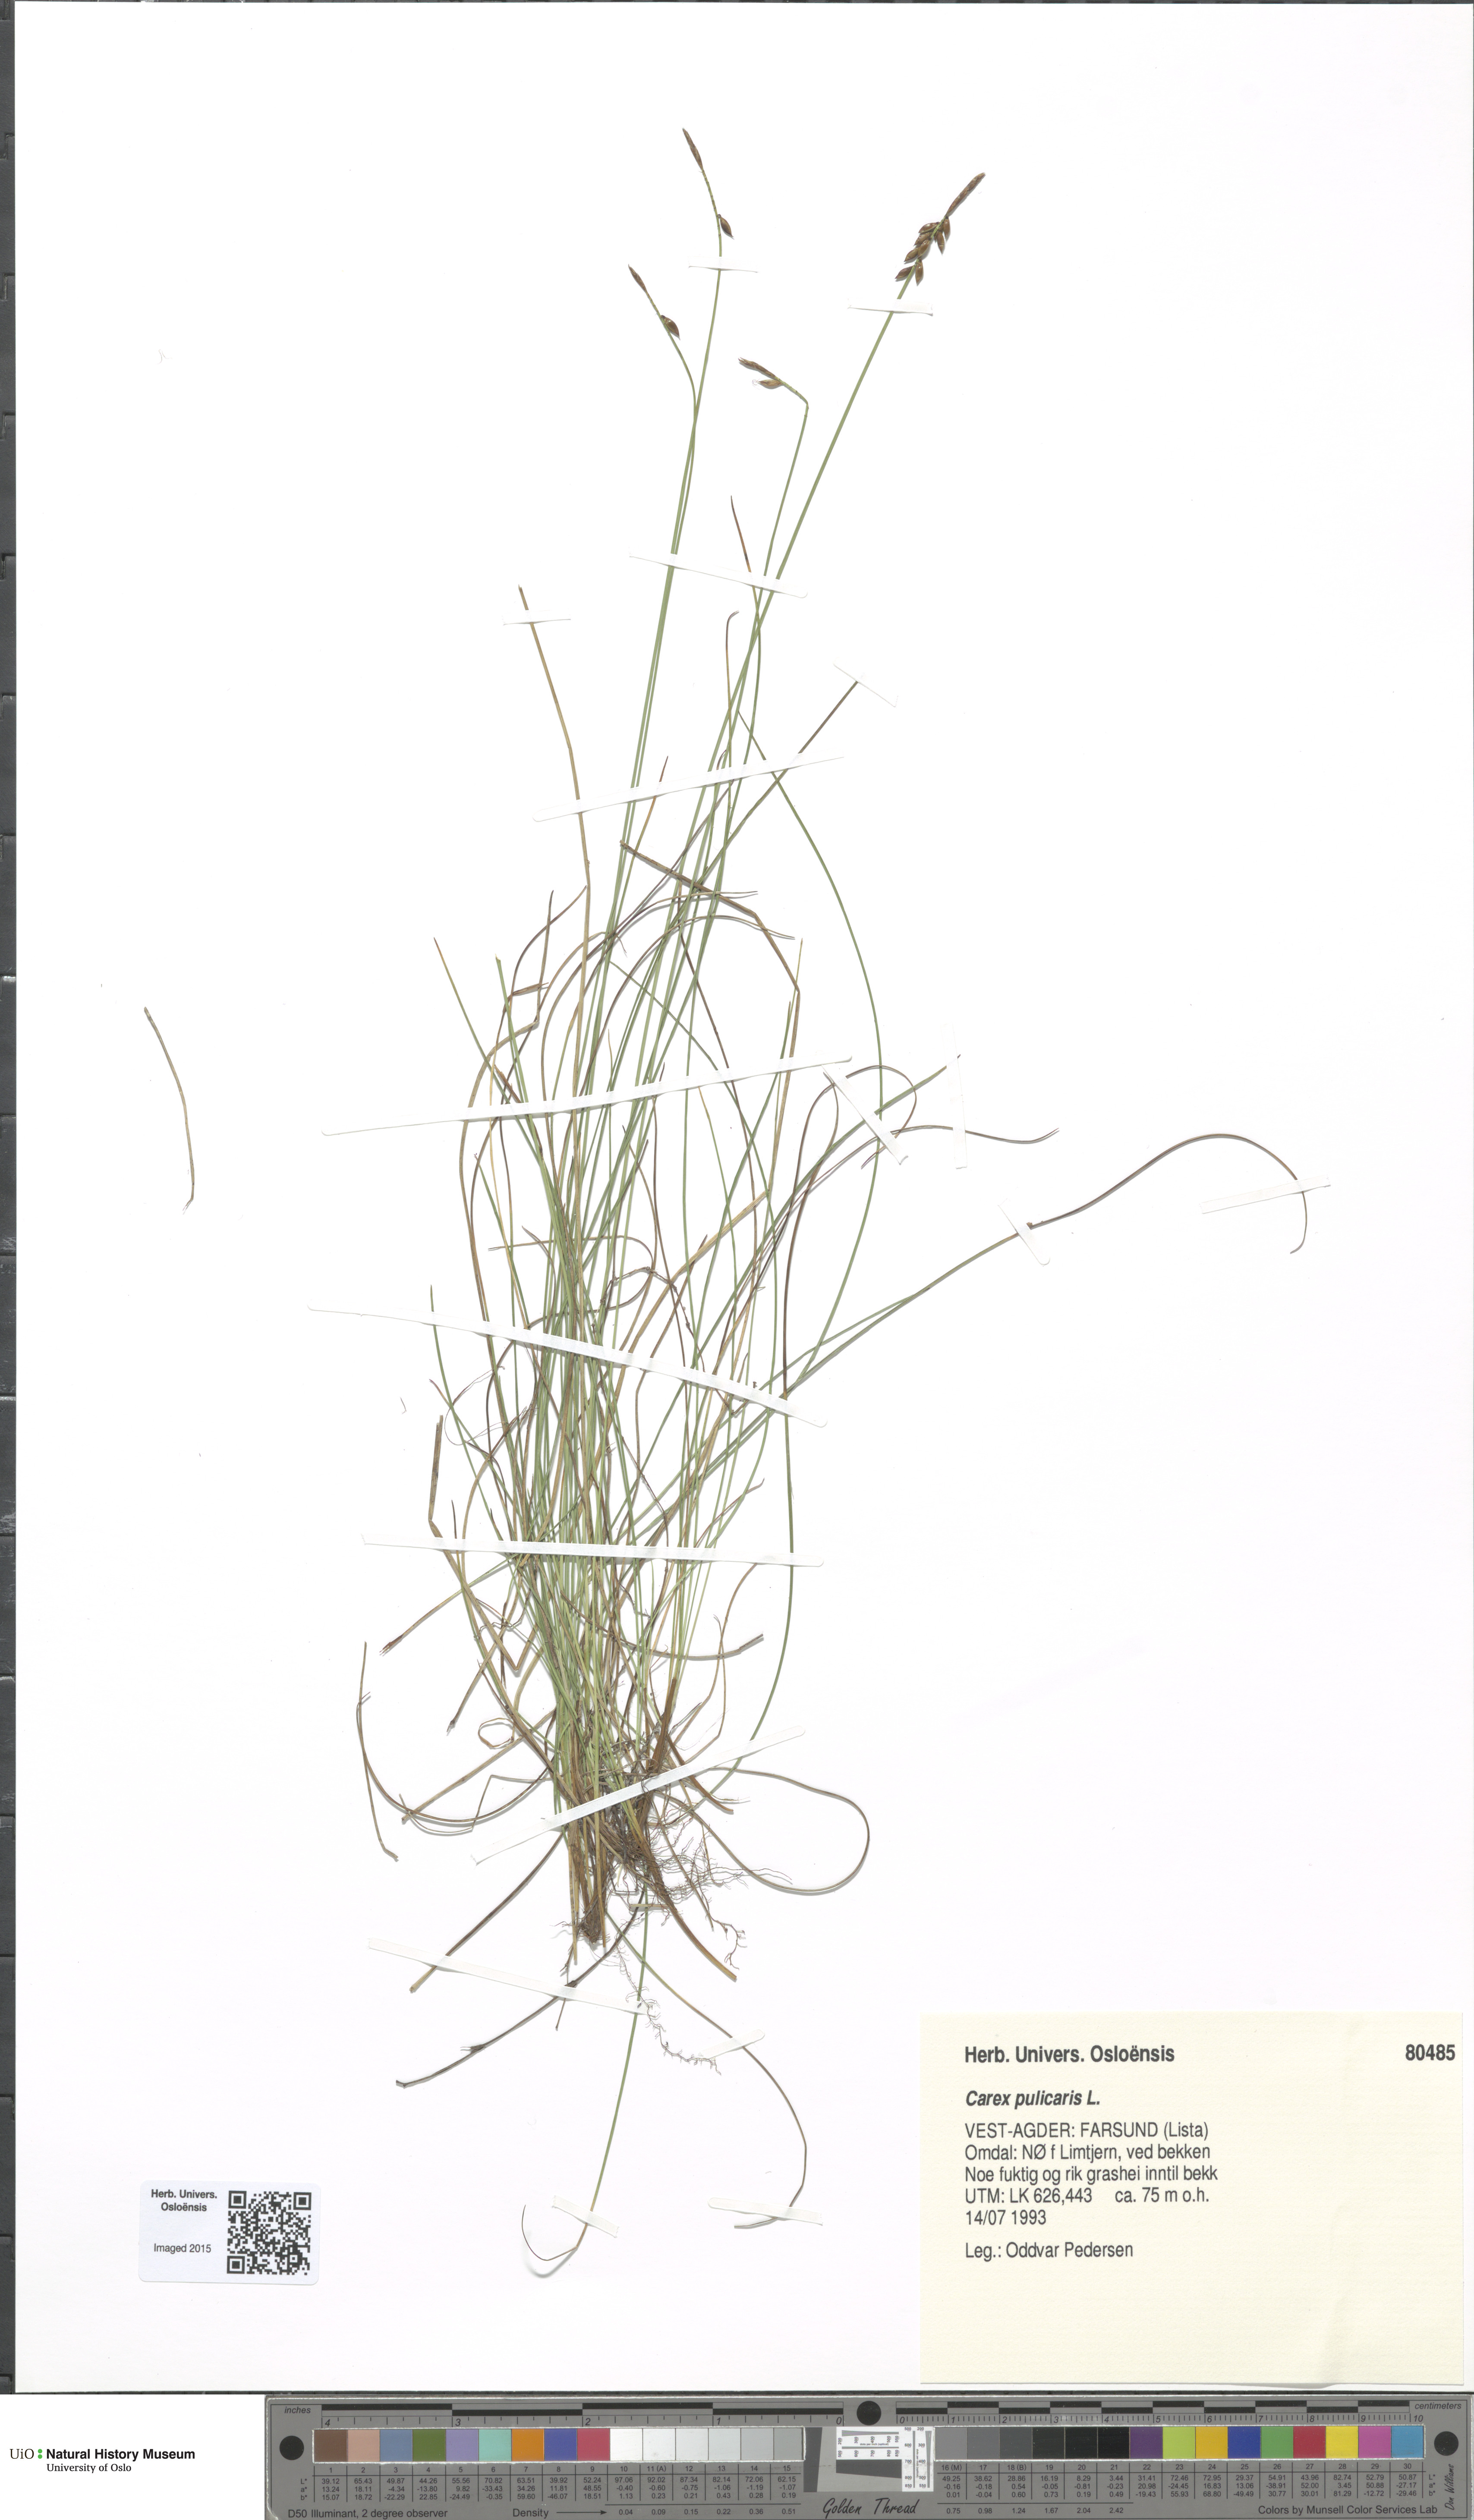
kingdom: Plantae
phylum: Tracheophyta
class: Liliopsida
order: Poales
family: Cyperaceae
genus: Carex
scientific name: Carex pulicaris
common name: Flea sedge
